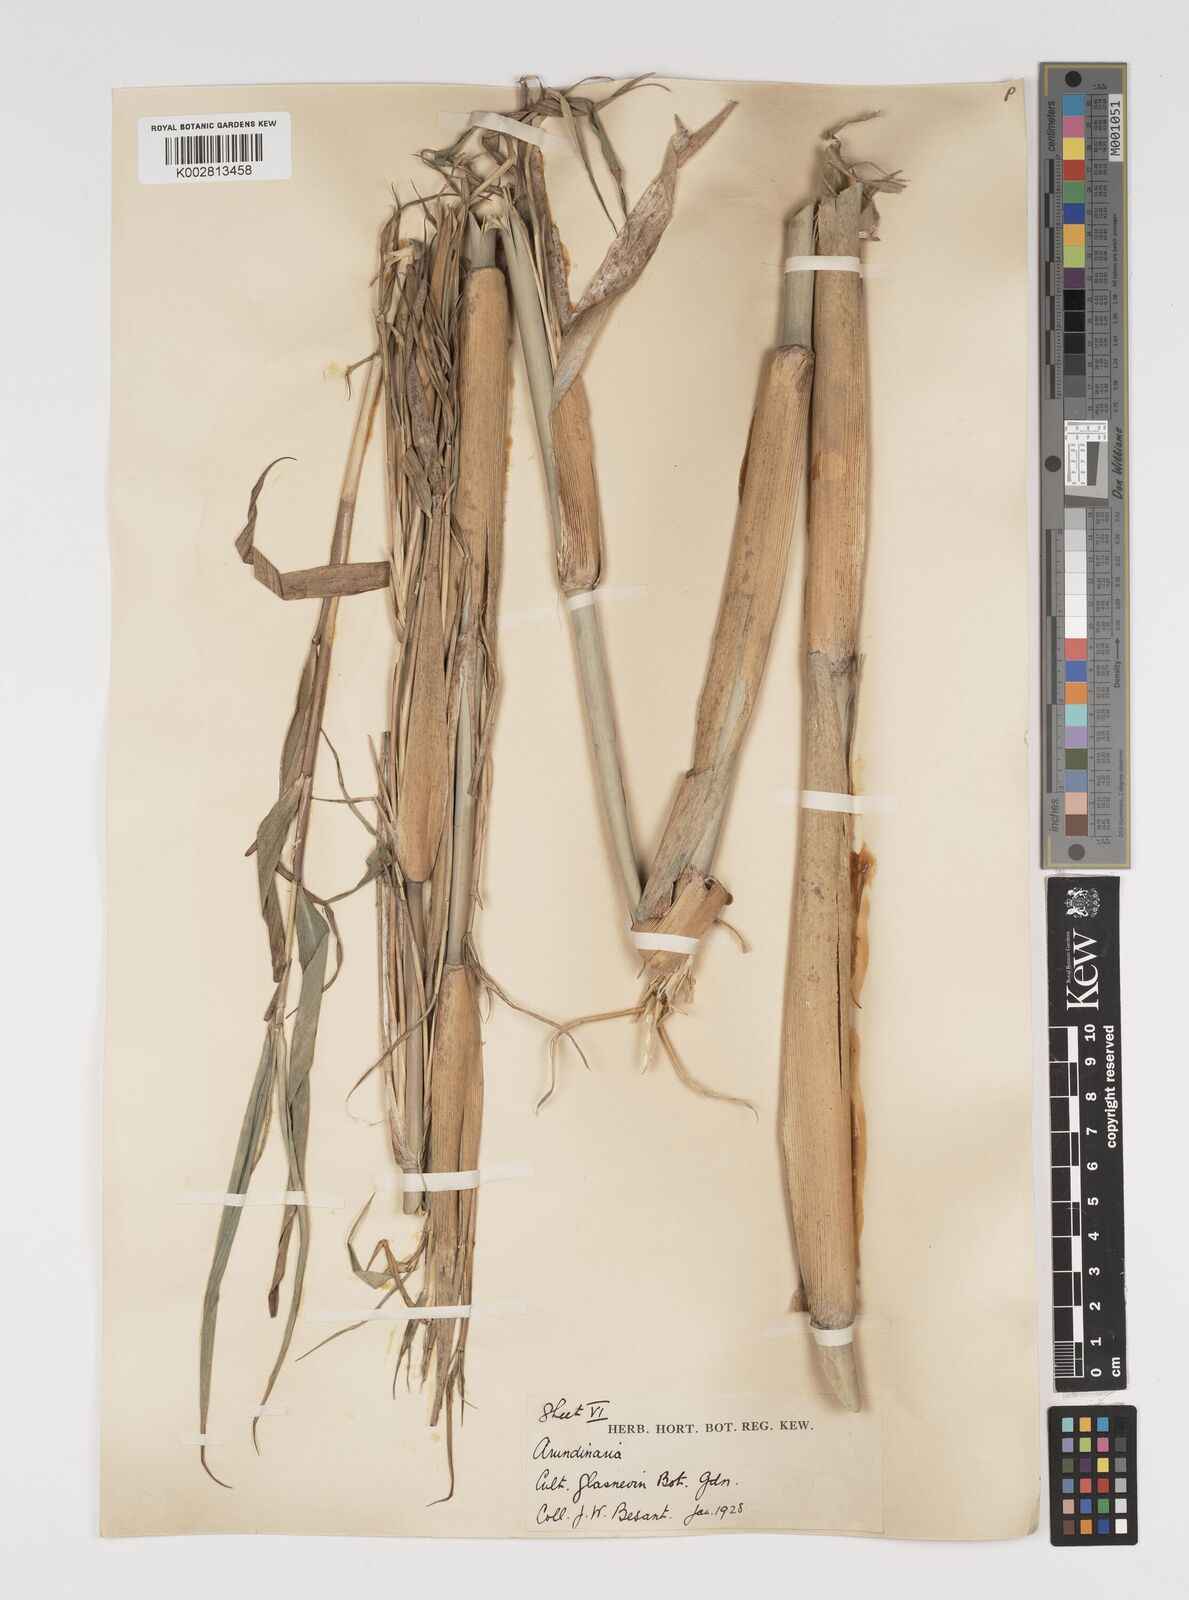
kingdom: Plantae
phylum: Tracheophyta
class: Liliopsida
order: Poales
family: Poaceae
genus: Thamnocalamus
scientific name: Thamnocalamus spathiflorus
